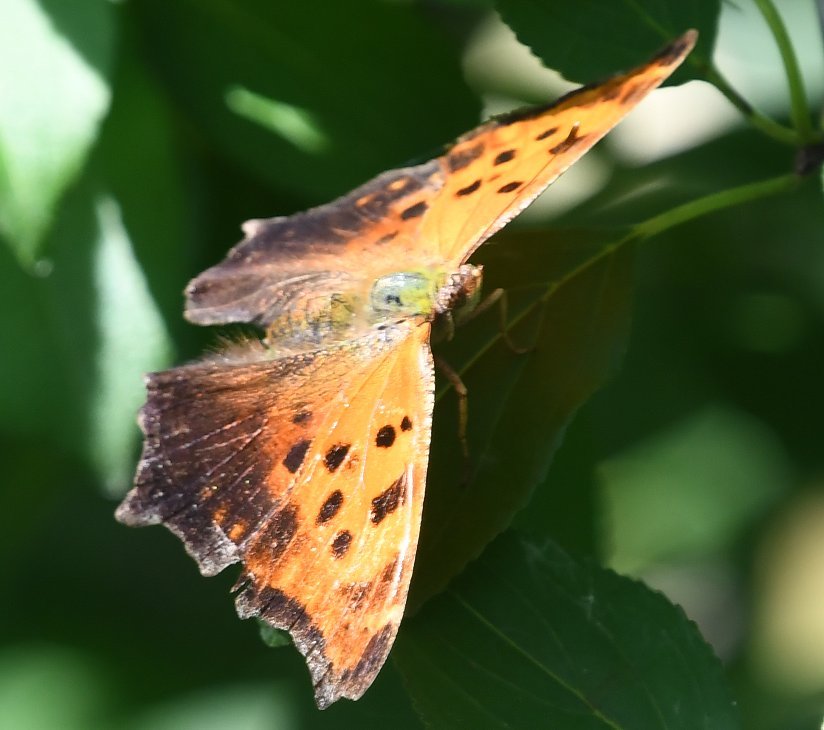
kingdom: Animalia
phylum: Arthropoda
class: Insecta
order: Lepidoptera
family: Nymphalidae
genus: Polygonia
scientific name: Polygonia comma
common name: Eastern Comma
